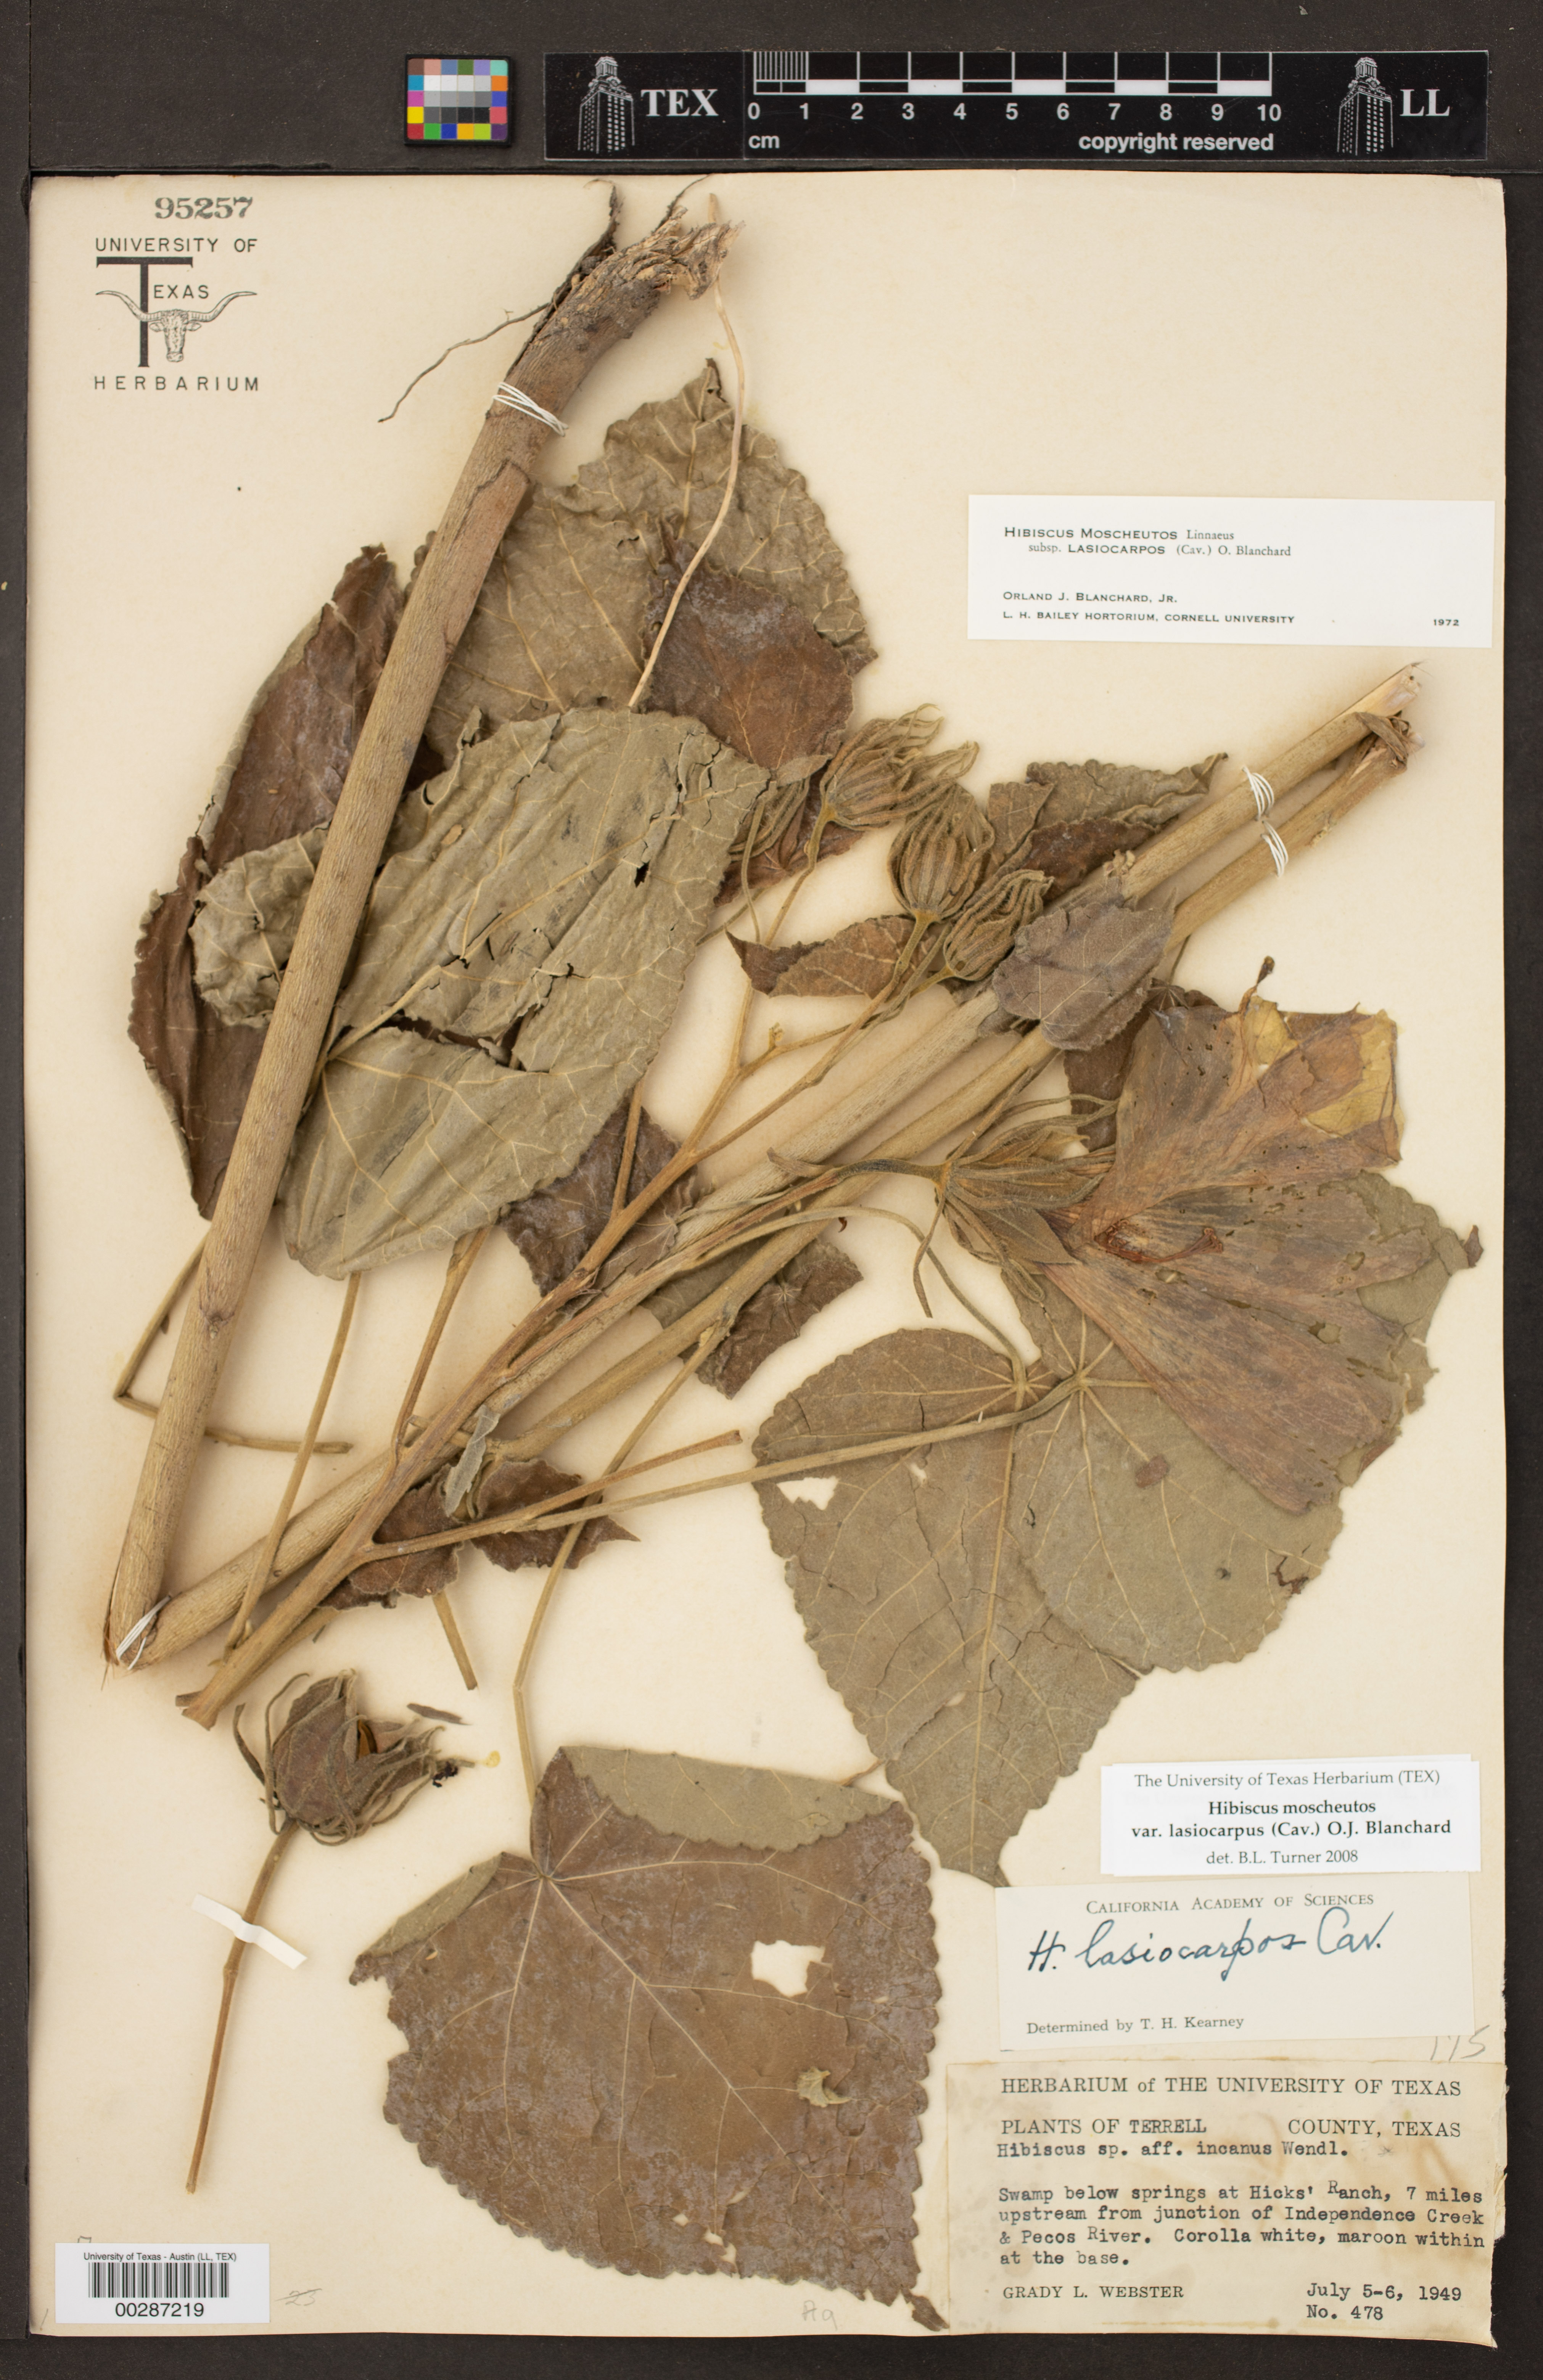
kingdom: Plantae
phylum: Tracheophyta
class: Magnoliopsida
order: Malvales
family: Malvaceae
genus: Hibiscus
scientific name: Hibiscus moscheutos
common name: Common rose-mallow
